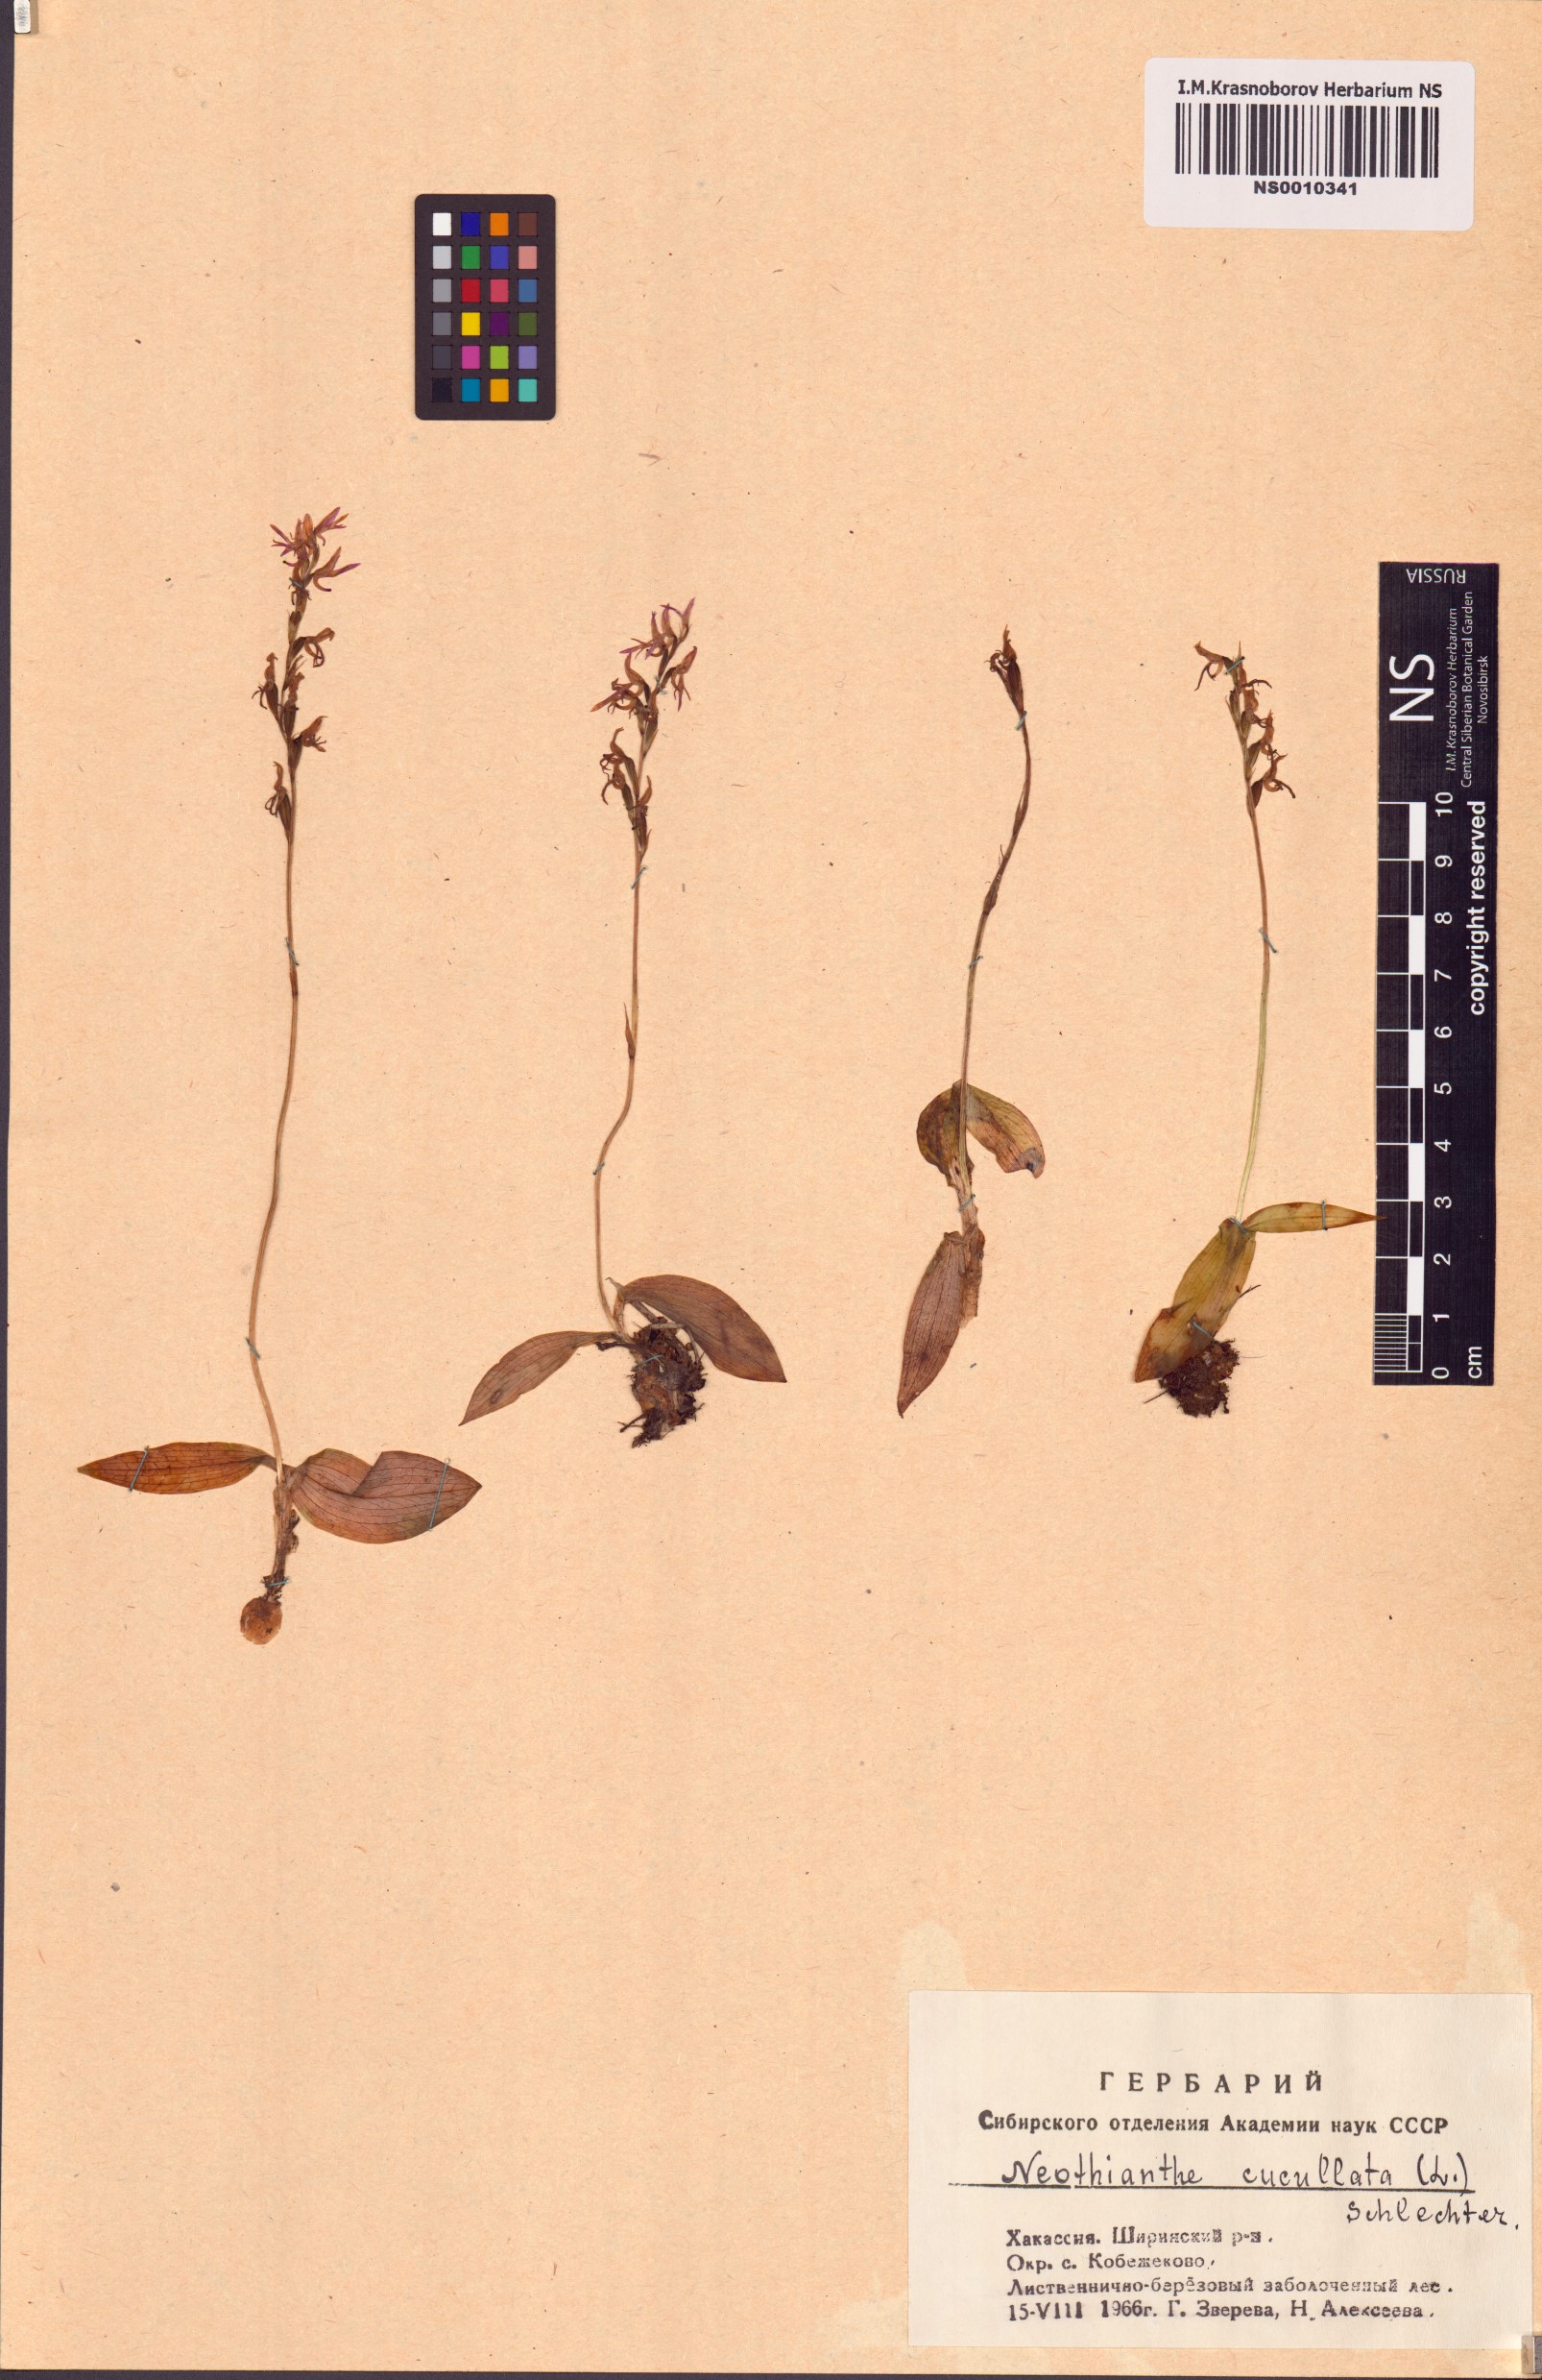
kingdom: Plantae
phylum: Tracheophyta
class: Liliopsida
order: Asparagales
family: Orchidaceae
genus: Hemipilia
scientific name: Hemipilia cucullata
